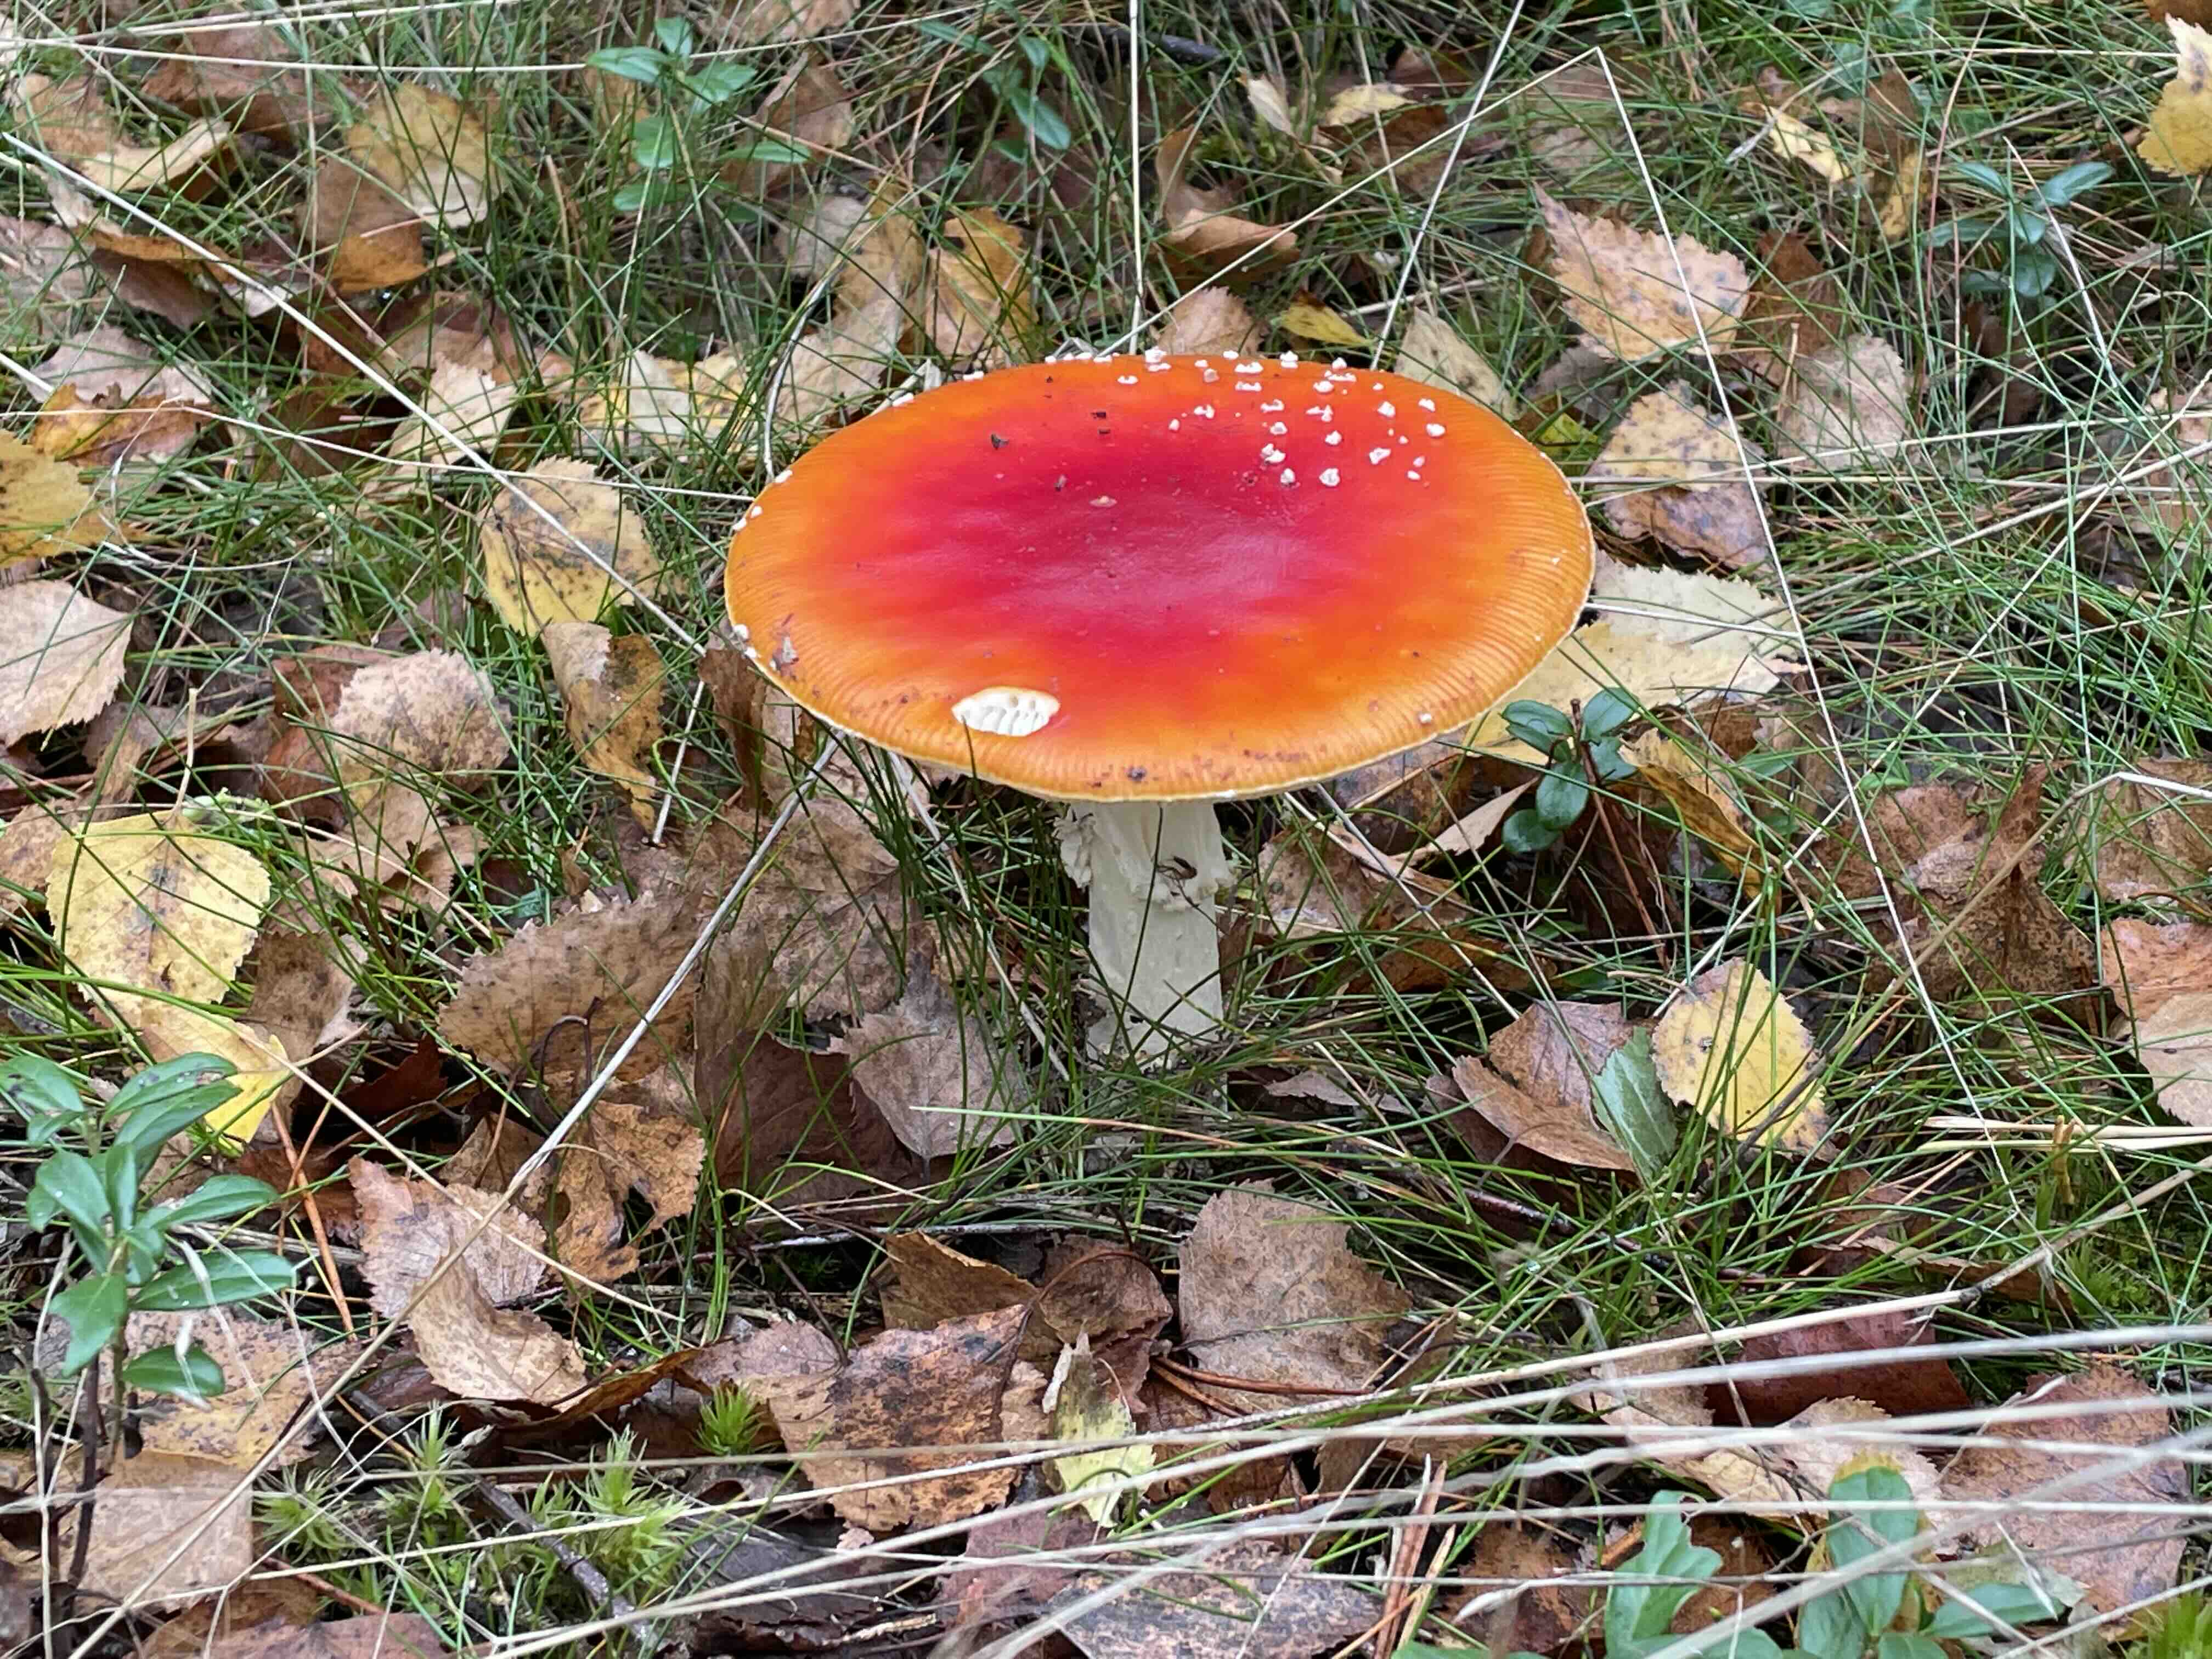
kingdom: Fungi
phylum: Basidiomycota
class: Agaricomycetes
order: Agaricales
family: Amanitaceae
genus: Amanita
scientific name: Amanita muscaria
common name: rød fluesvamp
